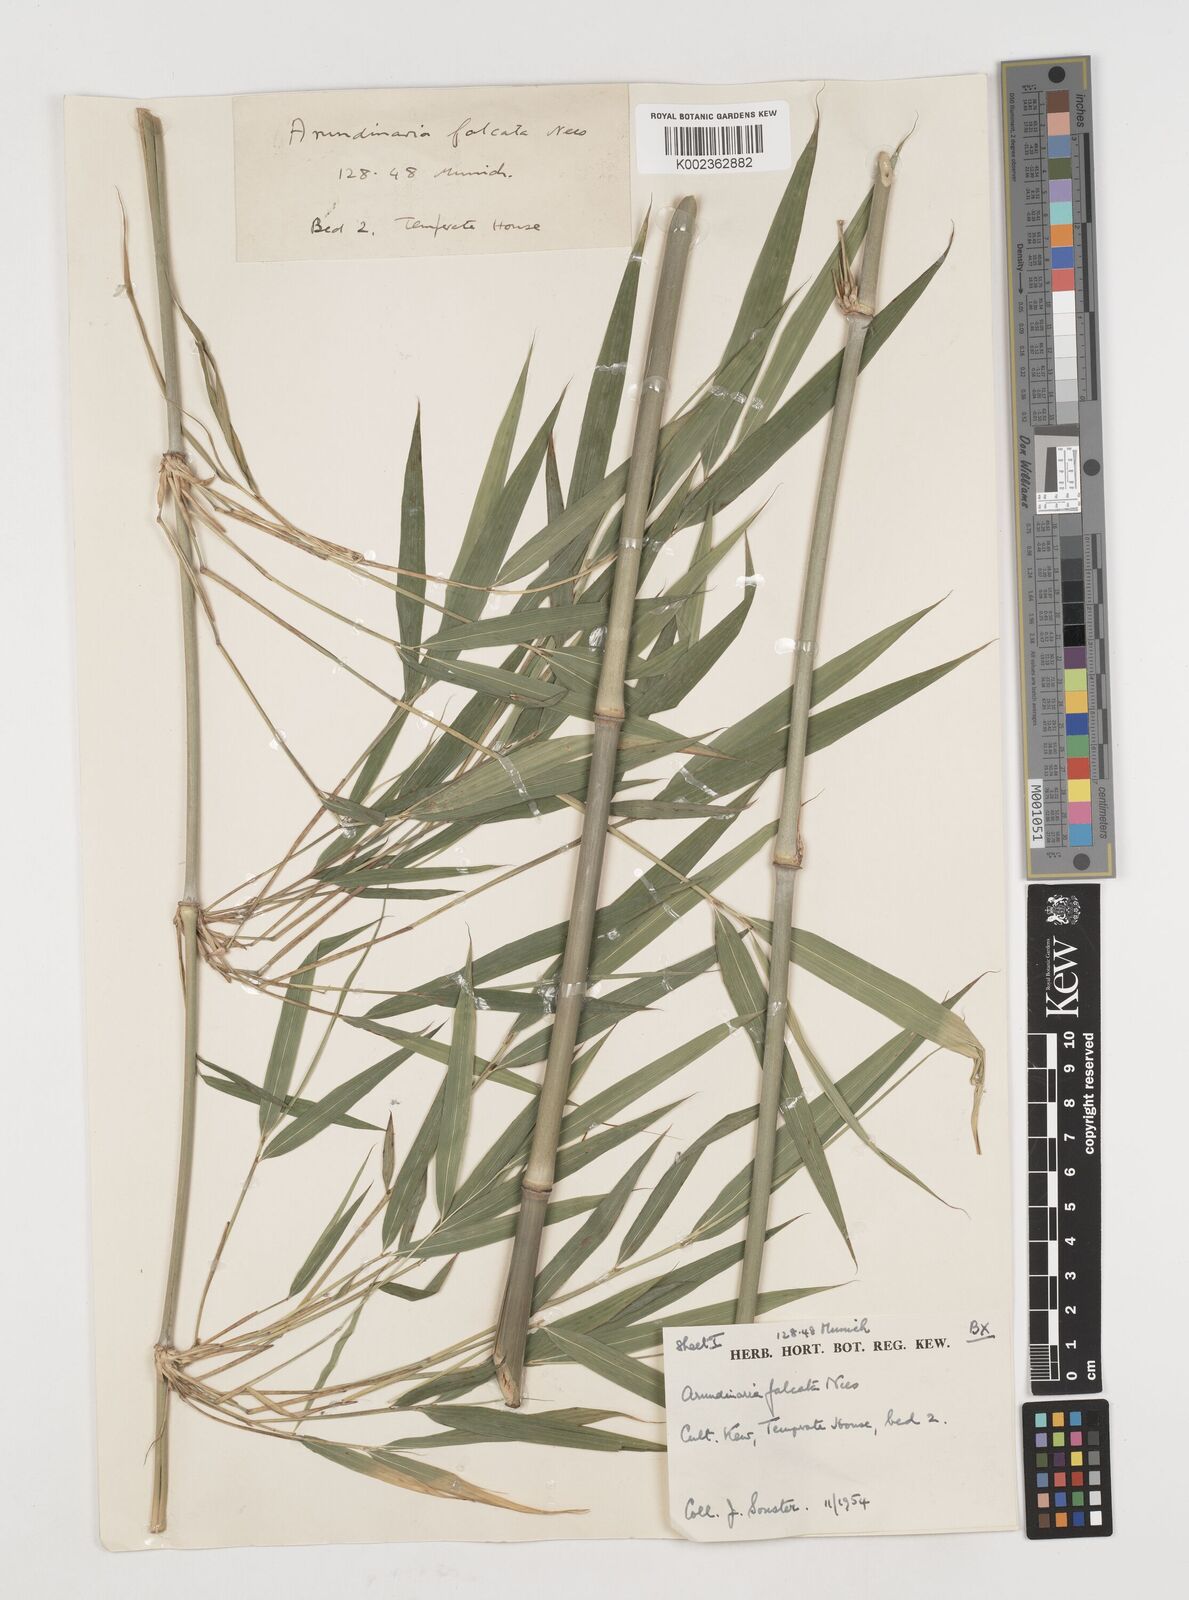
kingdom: Plantae
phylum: Tracheophyta
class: Liliopsida
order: Poales
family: Poaceae
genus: Drepanostachyum
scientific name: Drepanostachyum falcatum
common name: Himalayan bamboo
